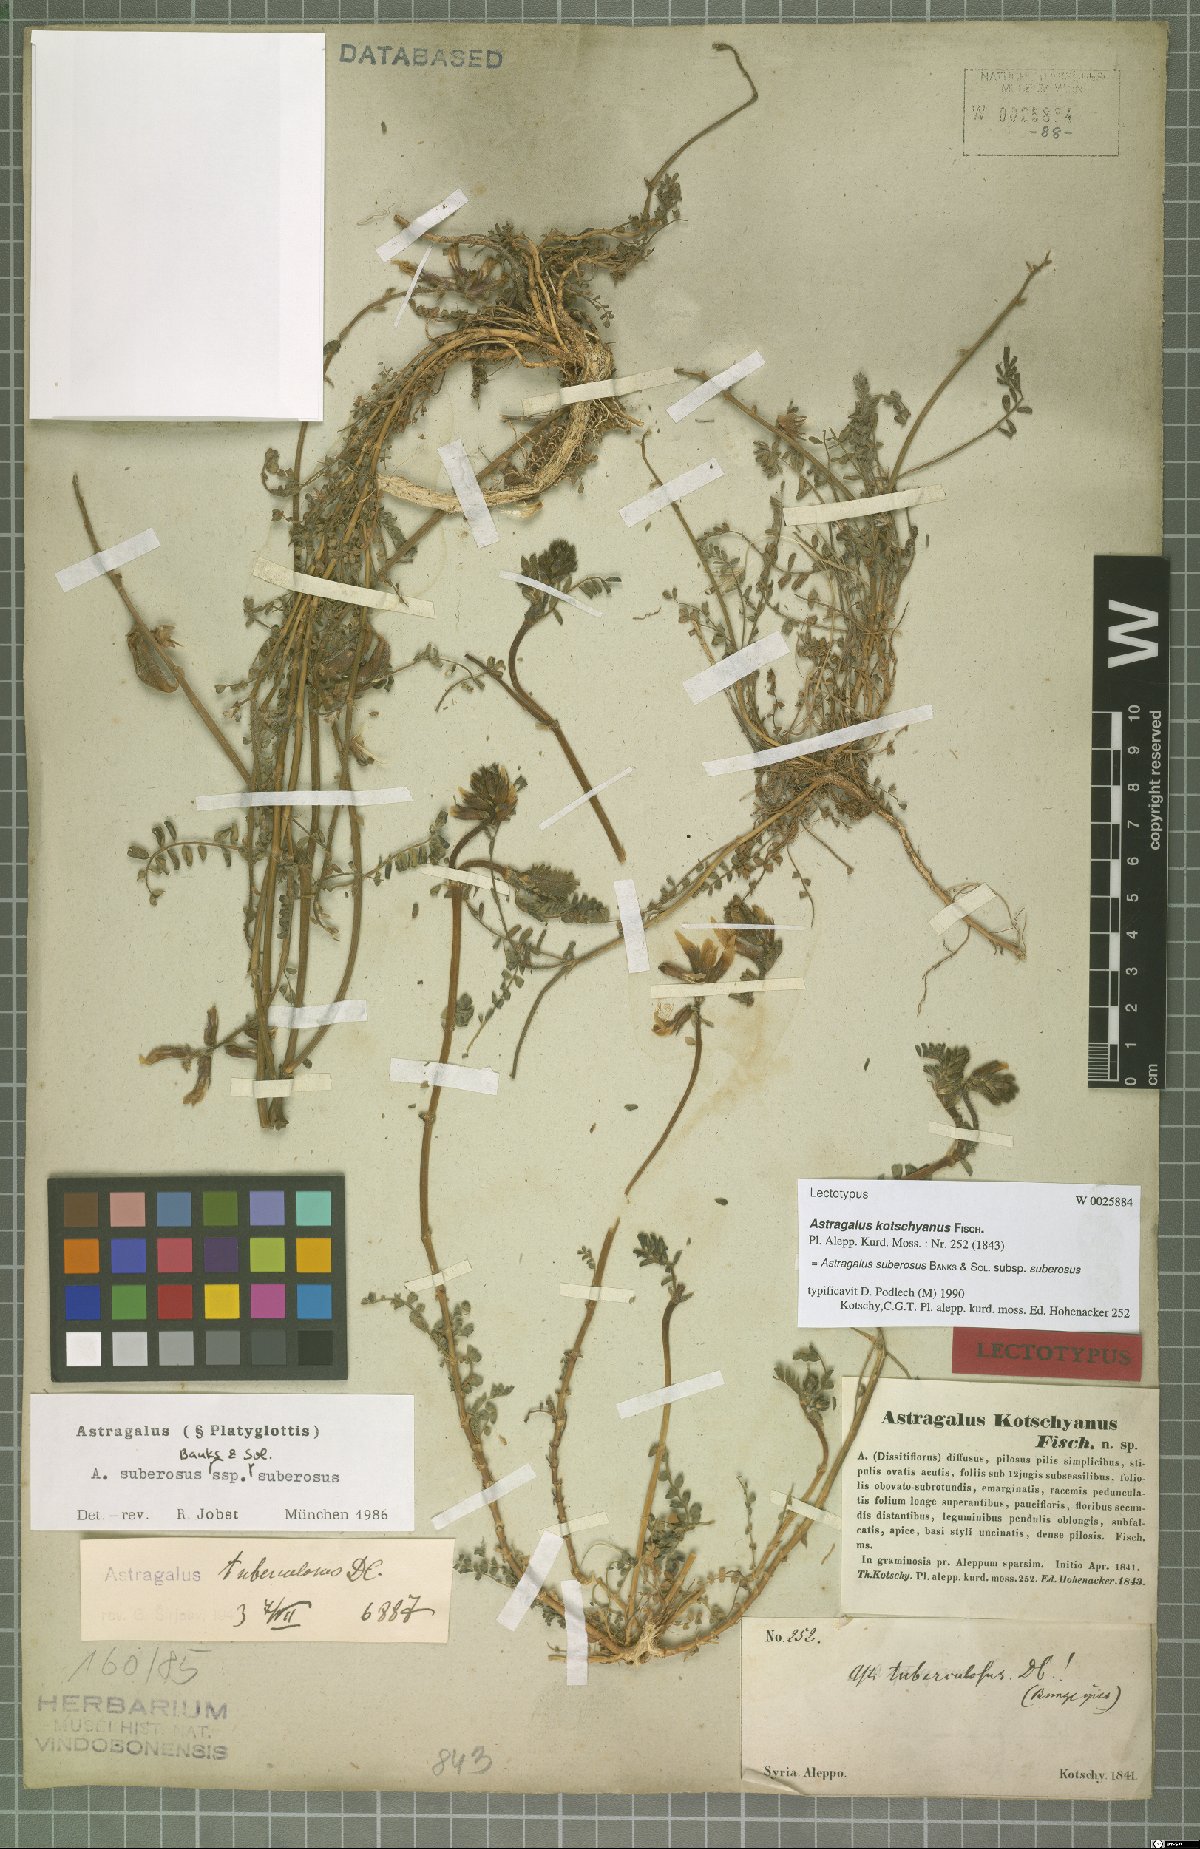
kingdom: Plantae
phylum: Tracheophyta
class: Magnoliopsida
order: Fabales
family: Fabaceae
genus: Astragalus
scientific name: Astragalus suberosus
